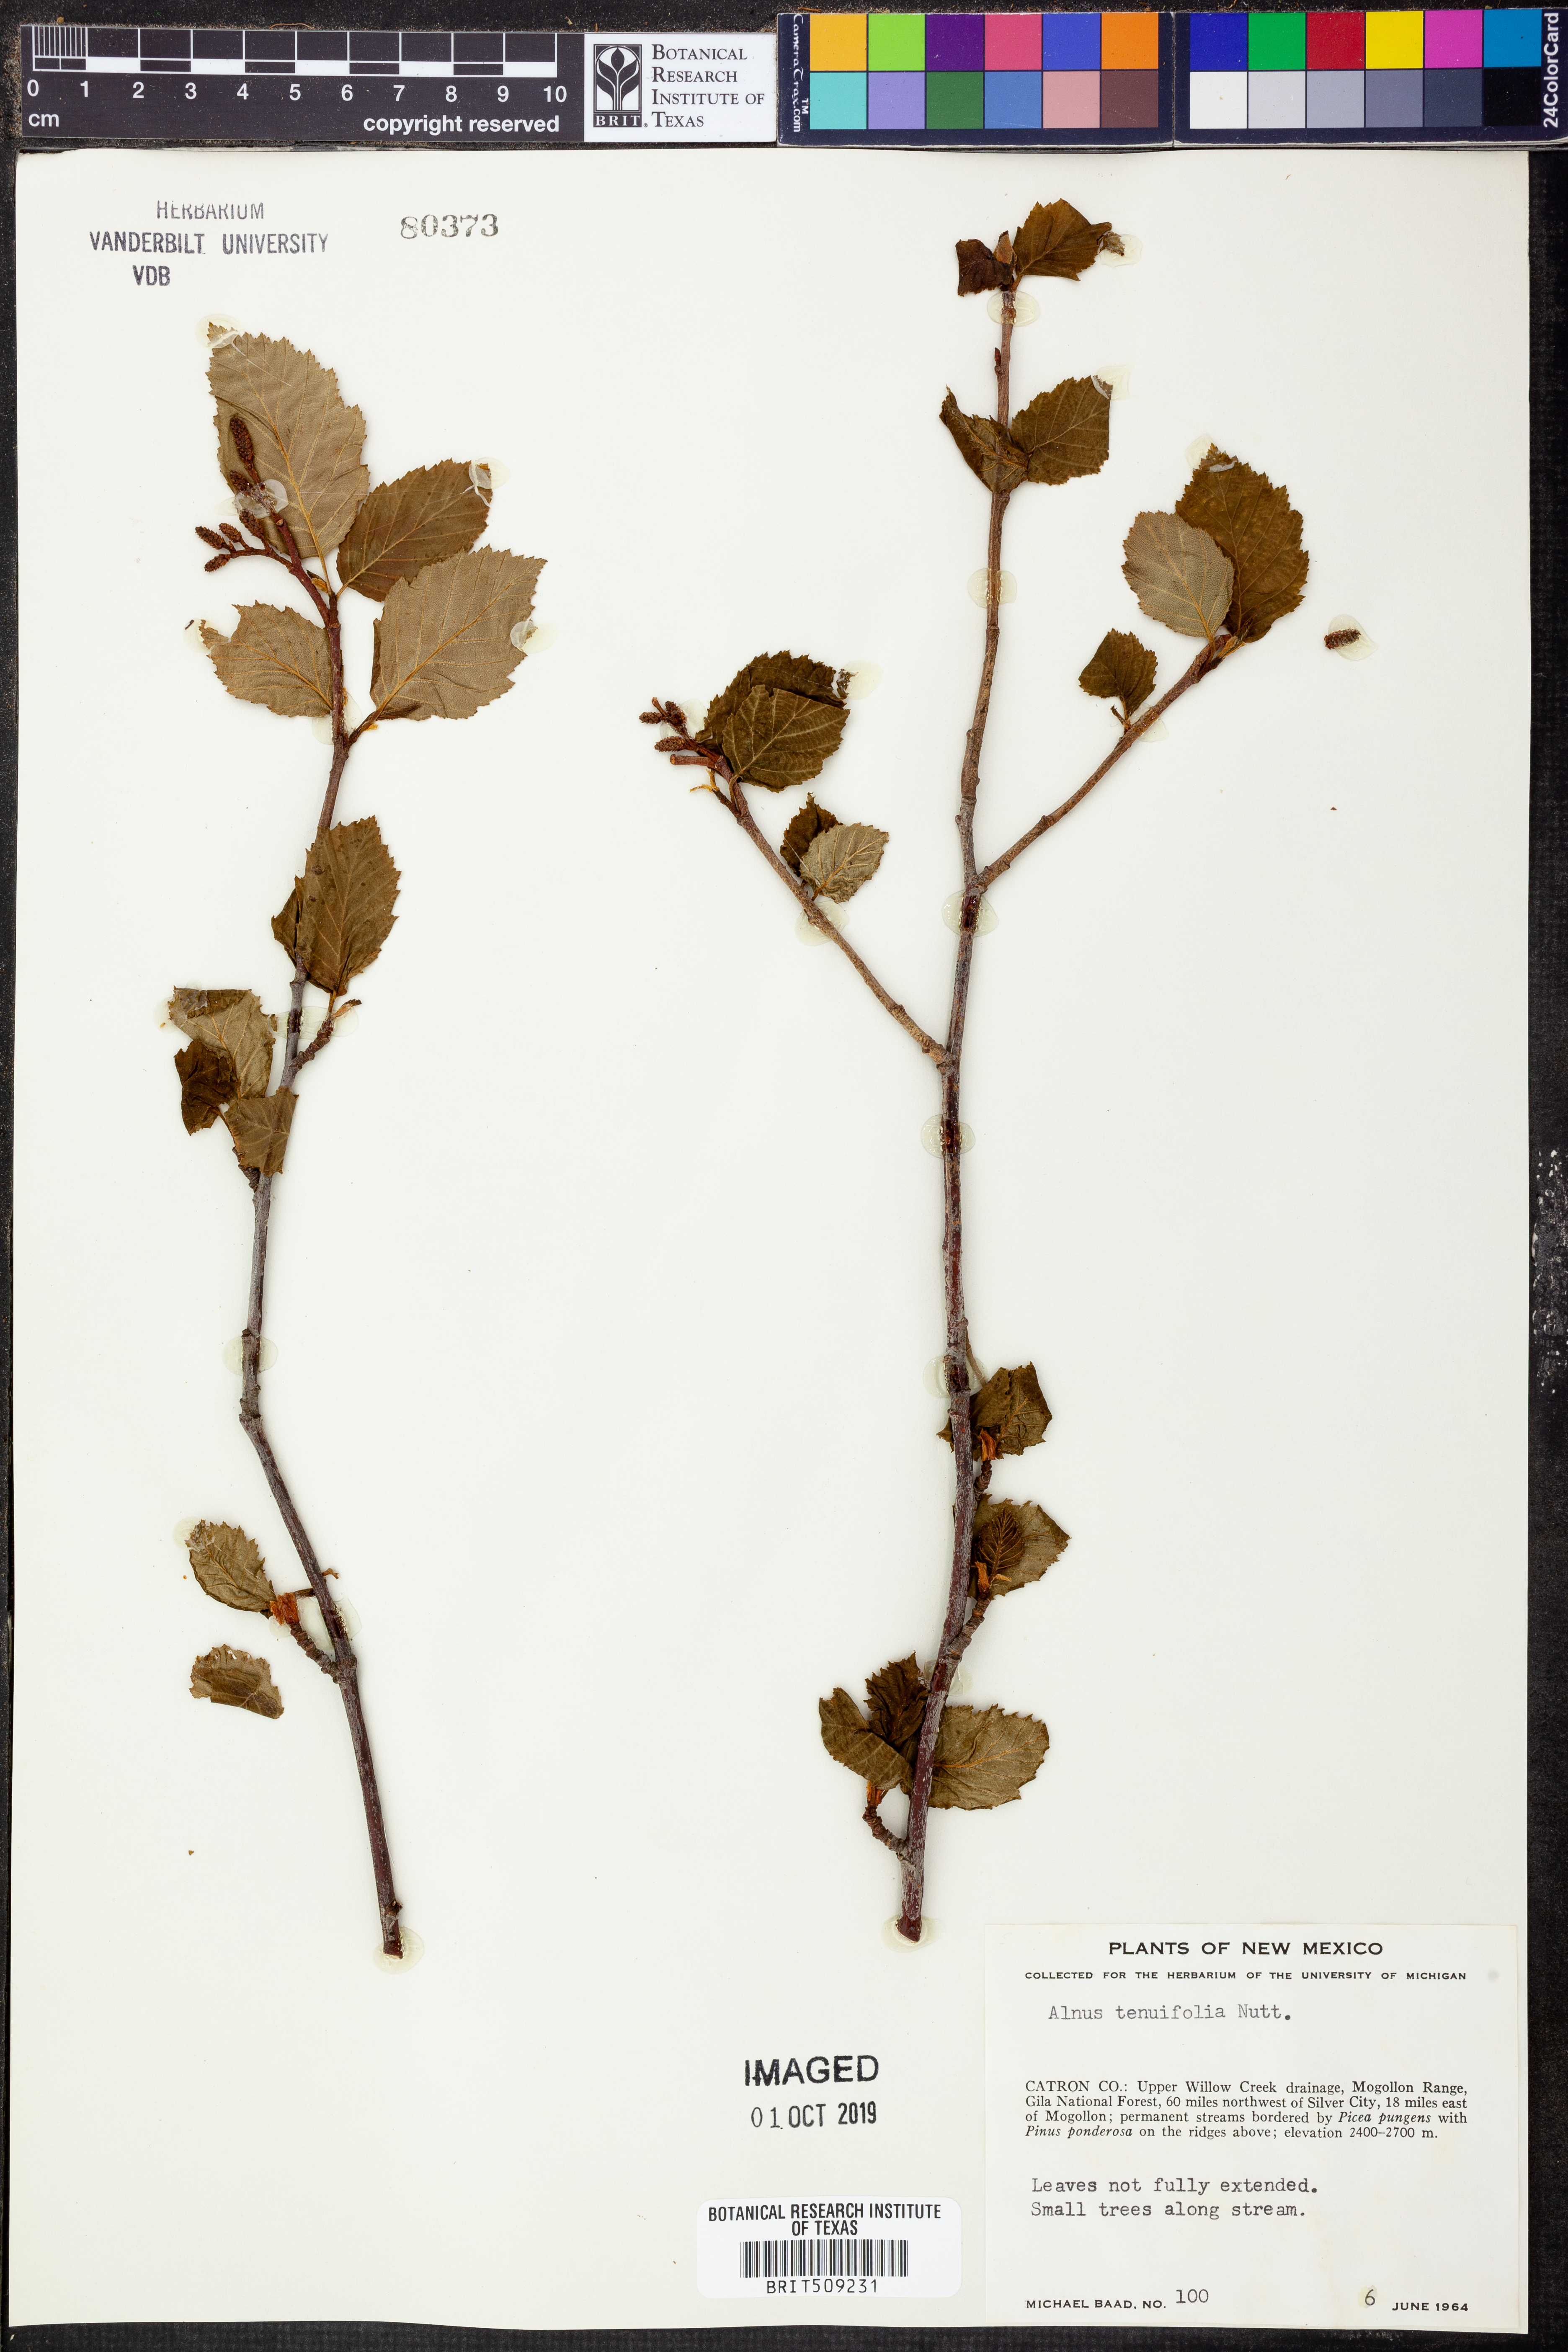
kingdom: Plantae
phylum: Tracheophyta
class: Magnoliopsida
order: Fagales
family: Betulaceae
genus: Alnus
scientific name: Alnus incana
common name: Grey alder
